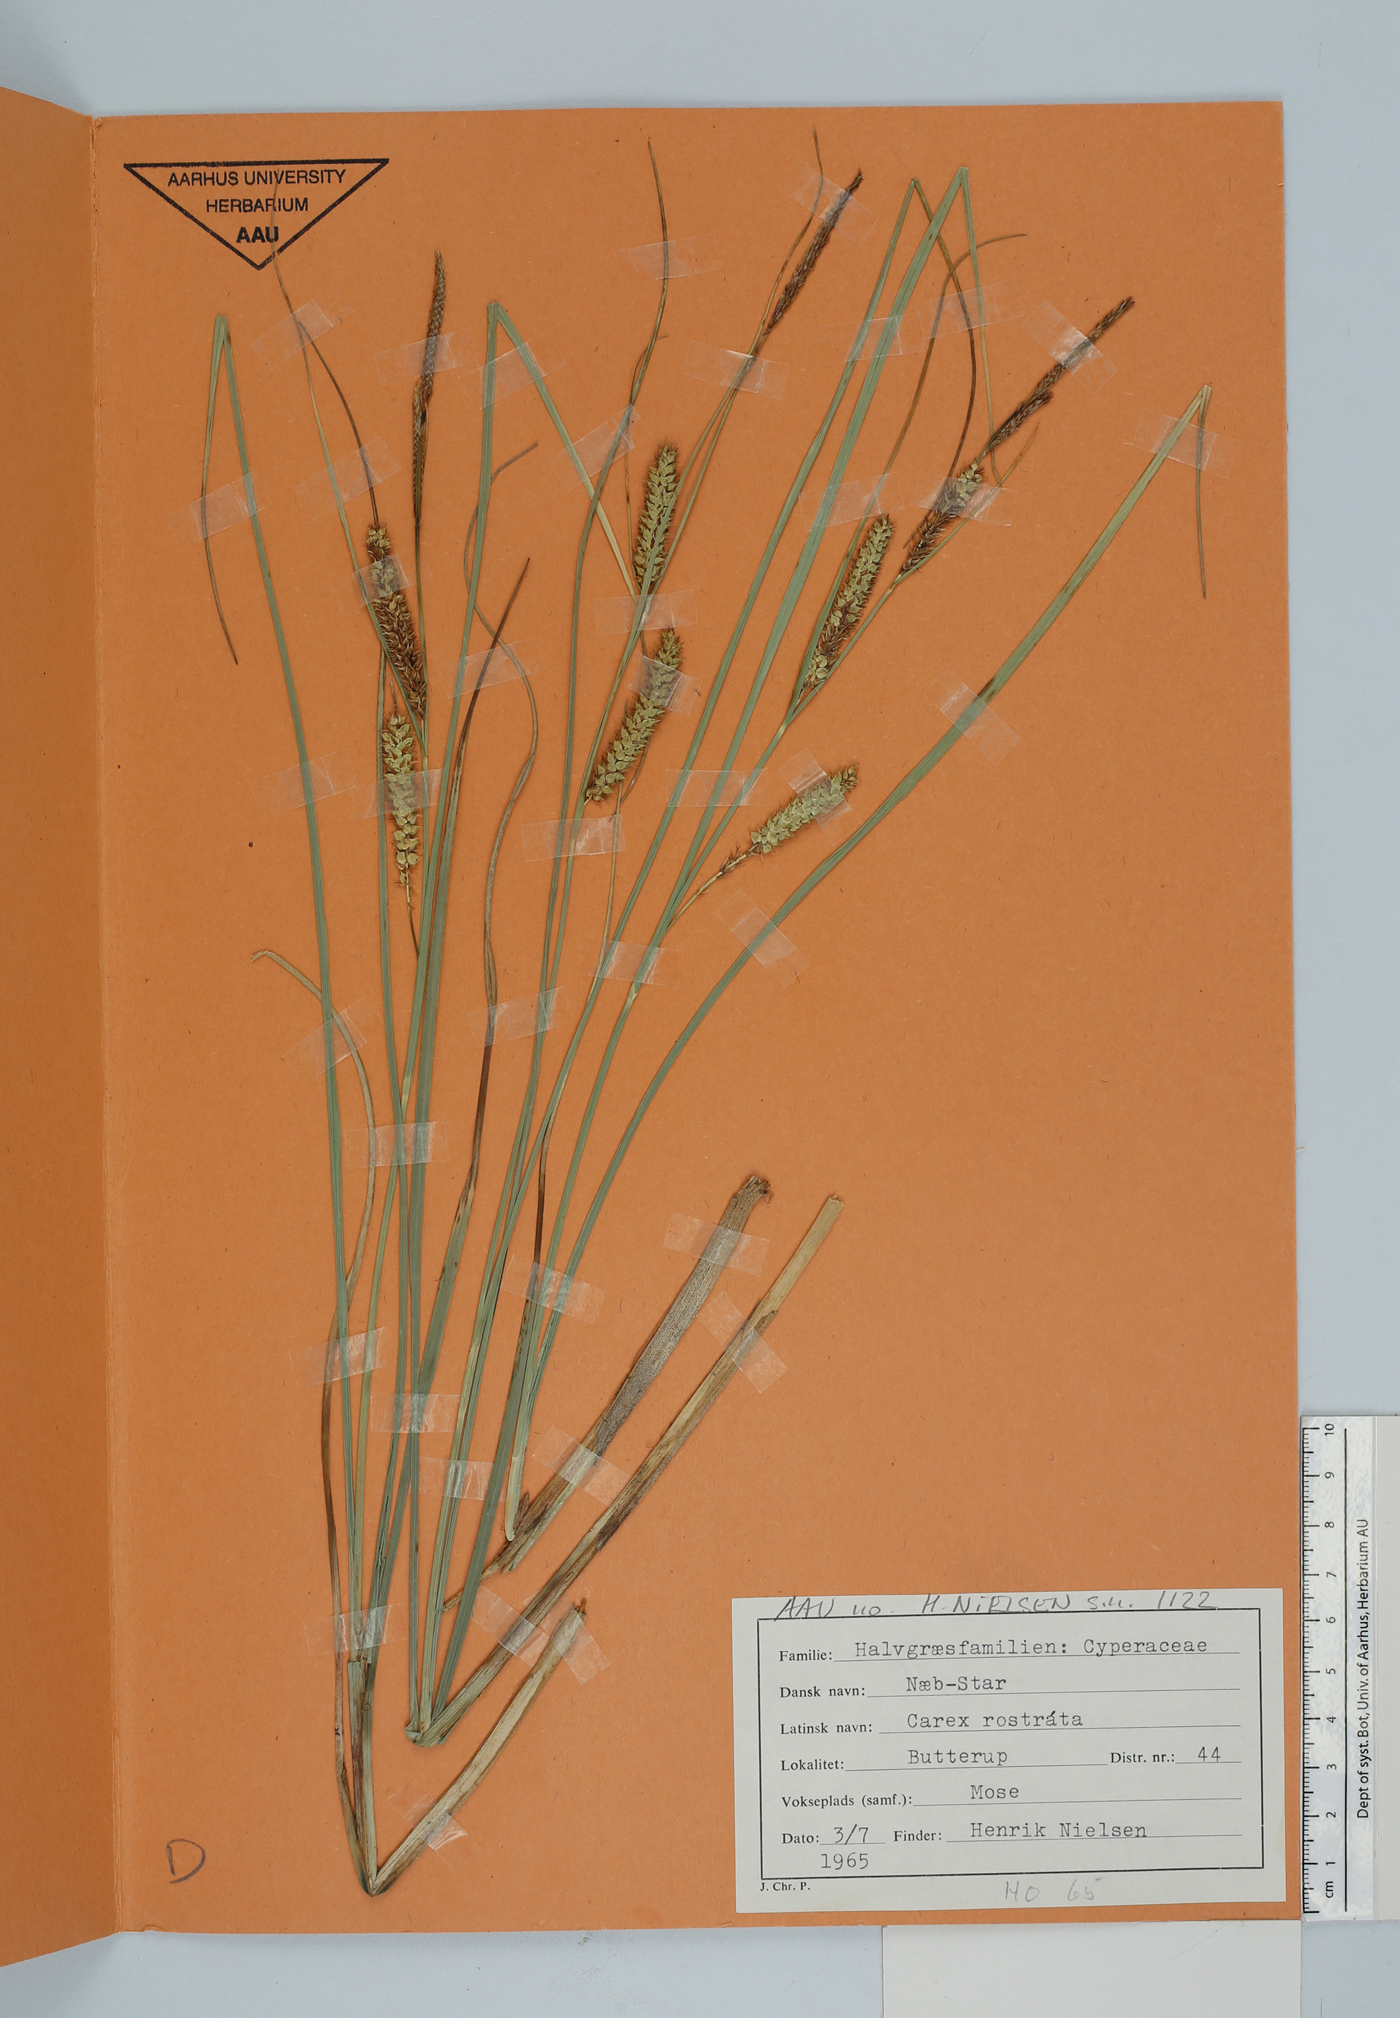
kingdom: Plantae
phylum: Tracheophyta
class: Liliopsida
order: Poales
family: Cyperaceae
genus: Carex
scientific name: Carex rostrata
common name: Bottle sedge
